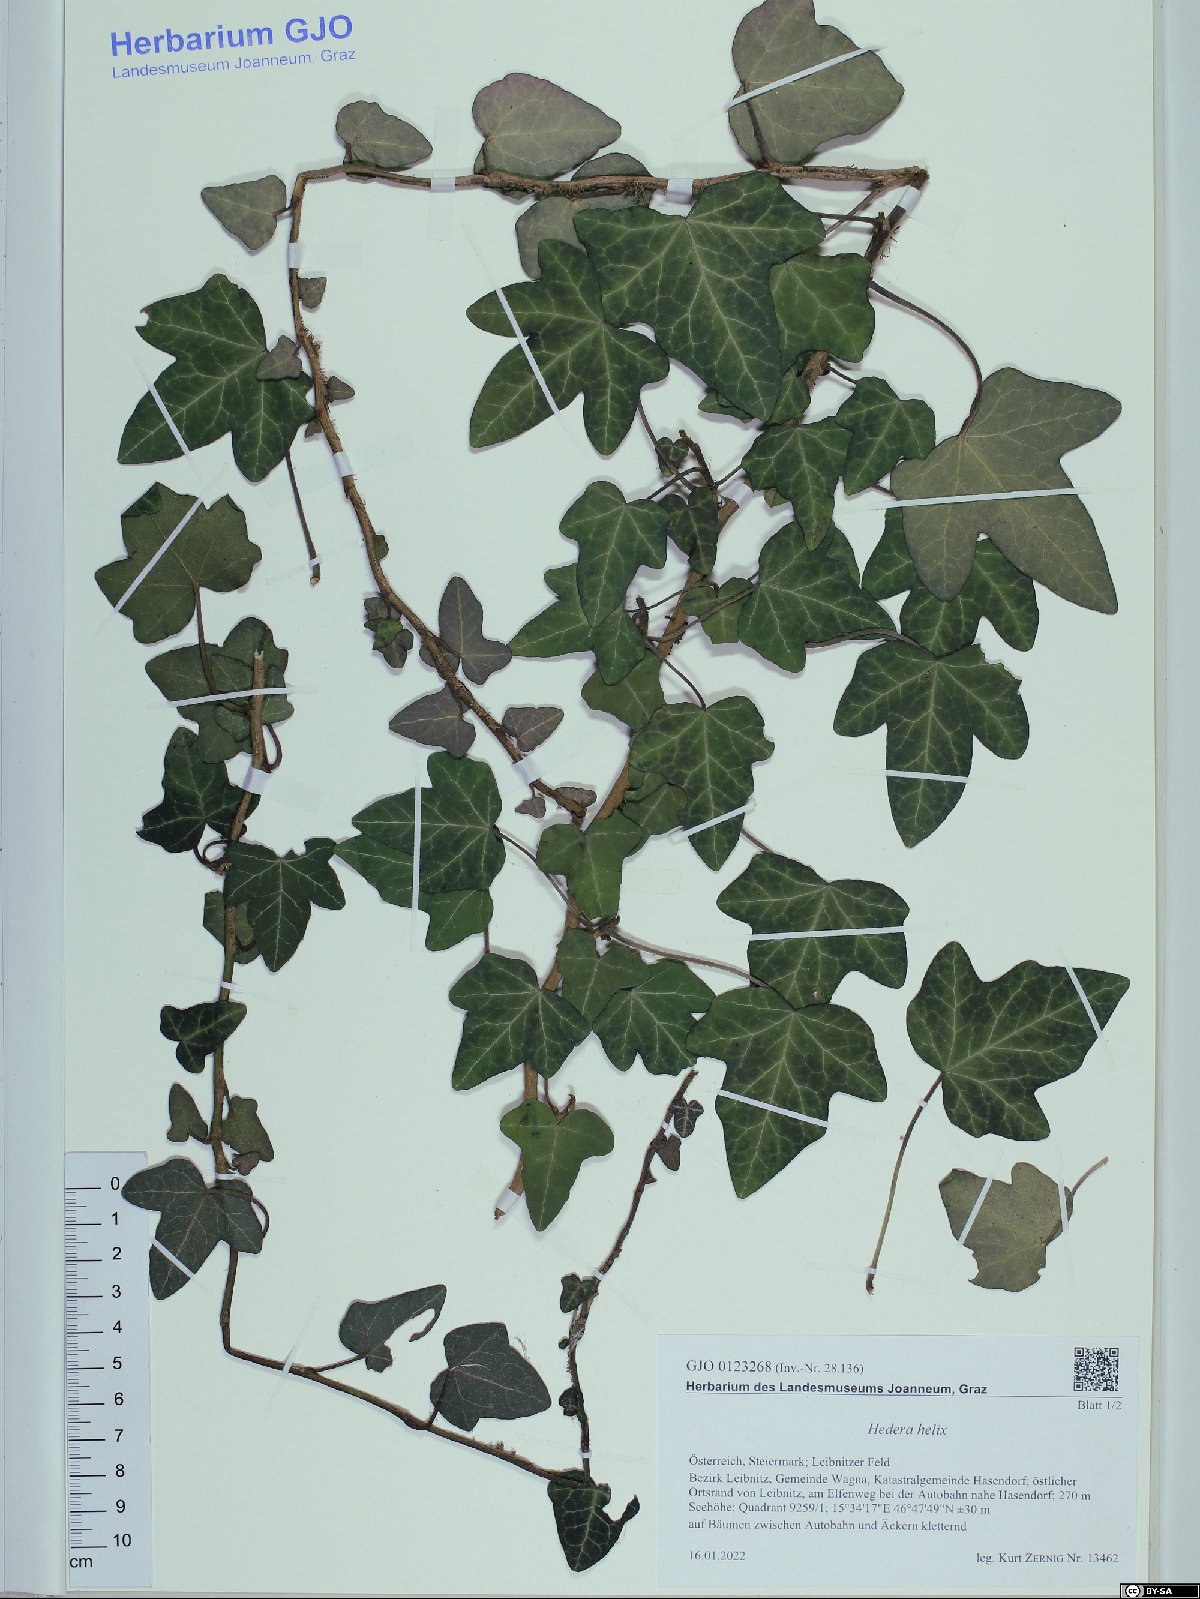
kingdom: Plantae
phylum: Tracheophyta
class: Magnoliopsida
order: Apiales
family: Araliaceae
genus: Hedera
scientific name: Hedera helix
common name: Ivy
